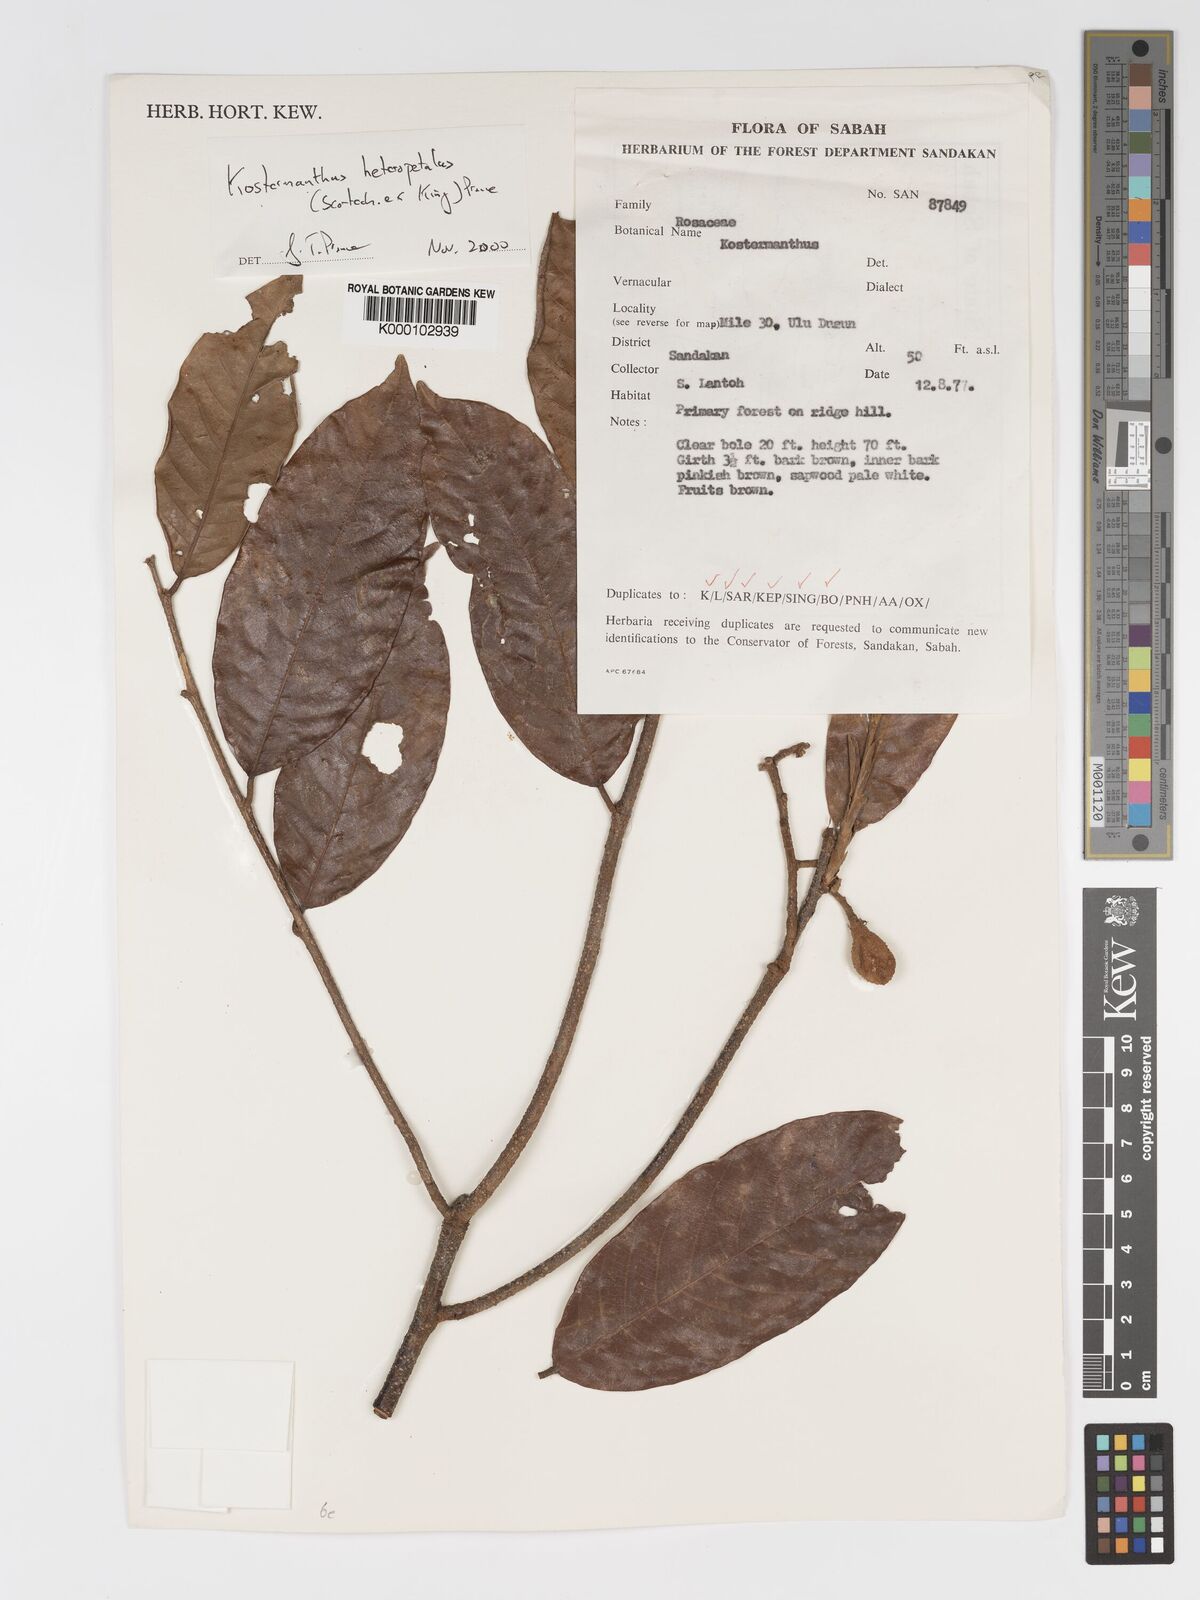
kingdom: Plantae
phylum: Tracheophyta
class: Magnoliopsida
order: Malpighiales
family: Chrysobalanaceae
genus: Kostermanthus
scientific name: Kostermanthus heteropetalus
